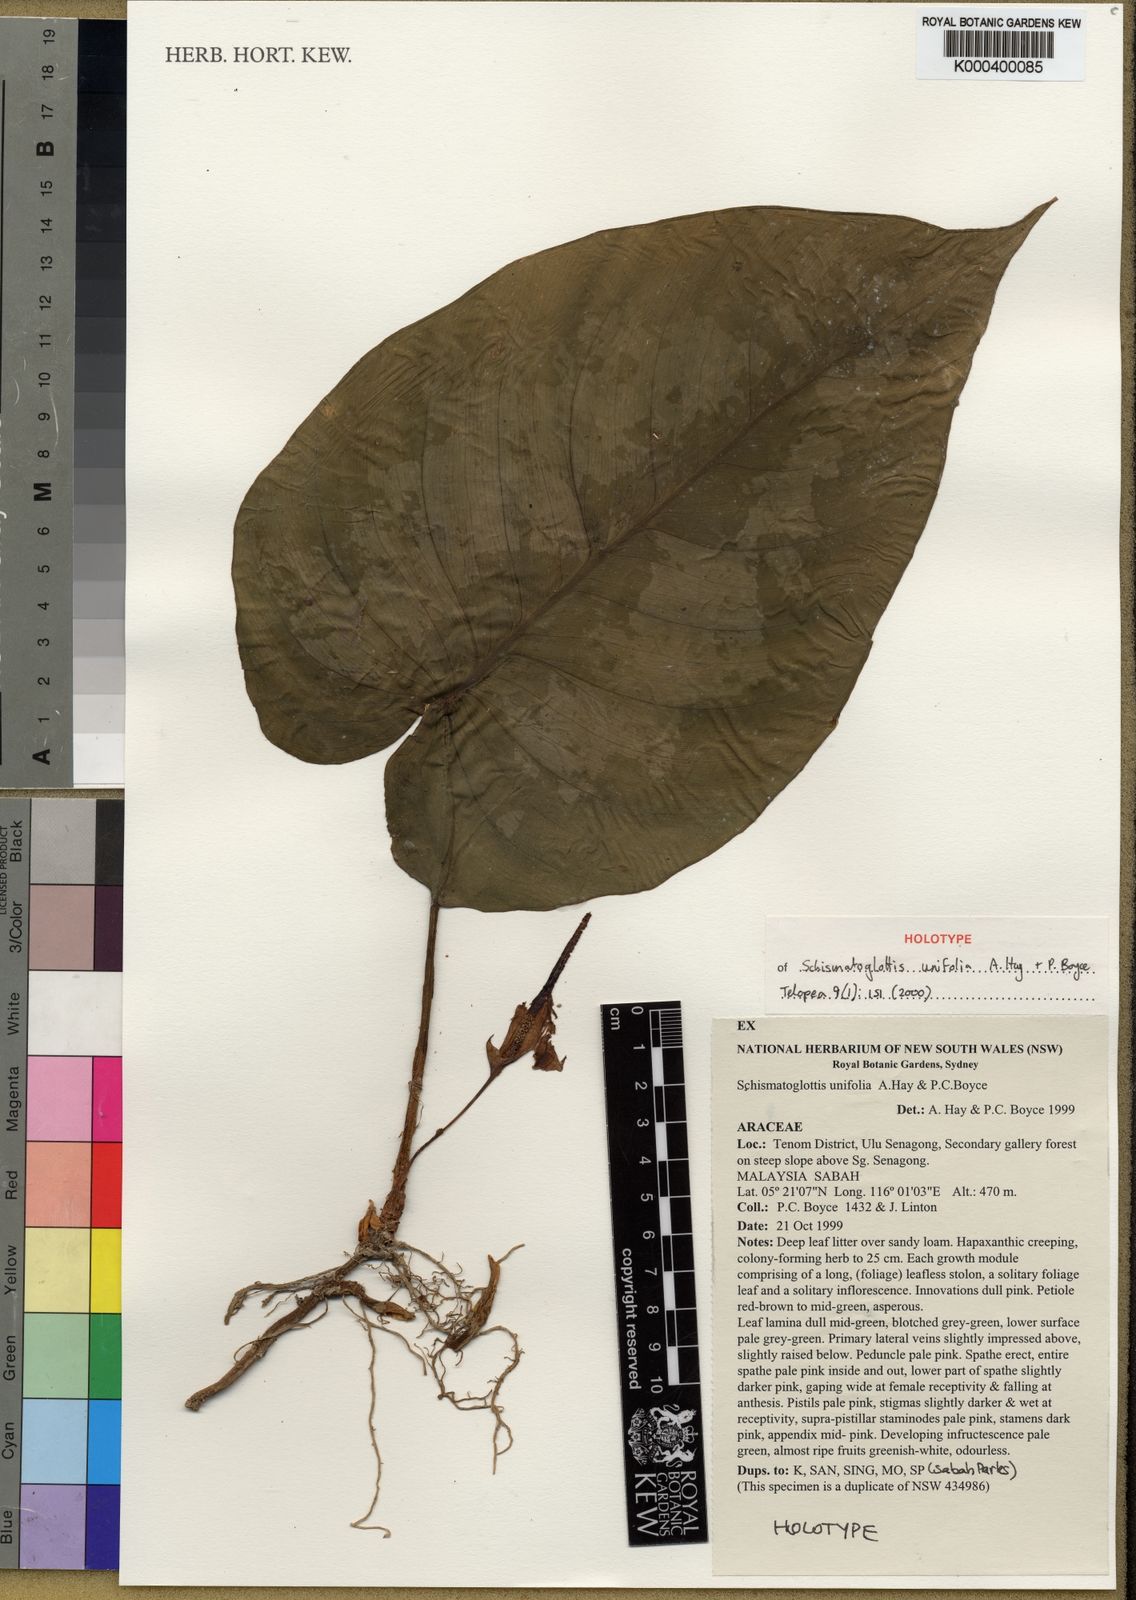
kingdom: Plantae
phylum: Tracheophyta
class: Liliopsida
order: Alismatales
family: Araceae
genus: Schismatoglottis
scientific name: Schismatoglottis unifolia
